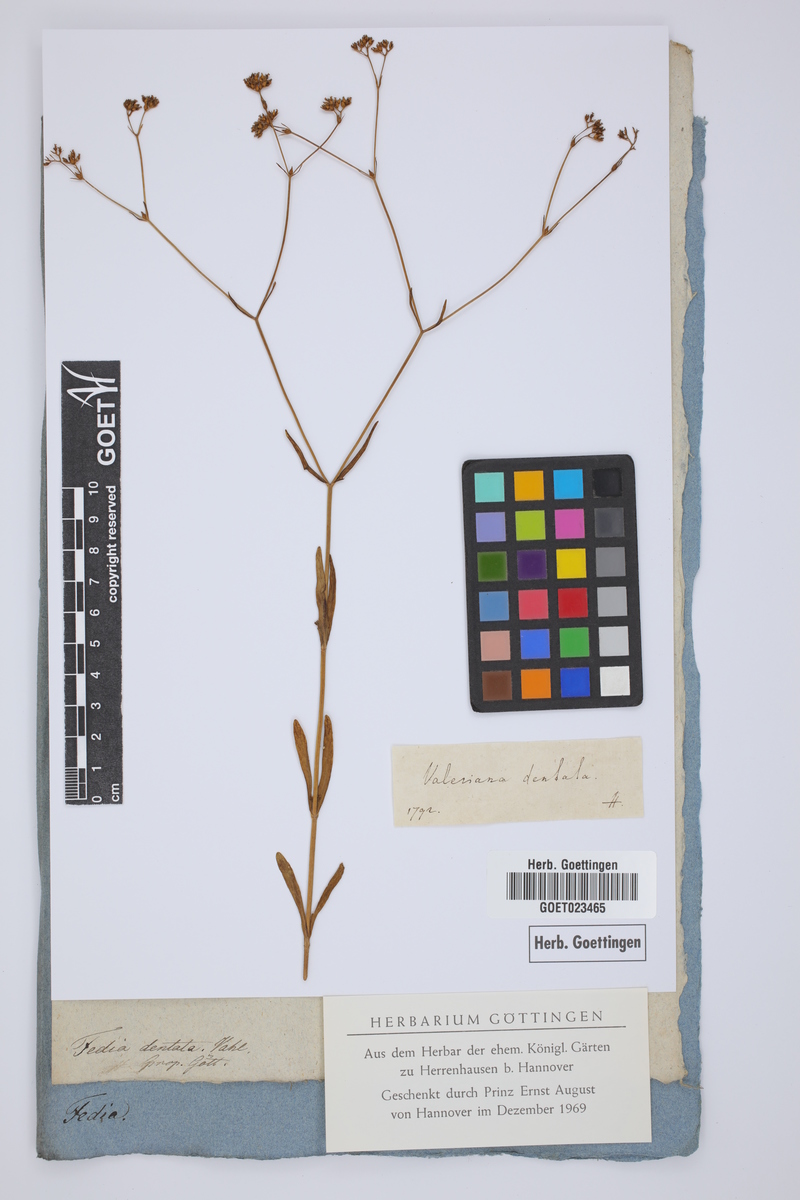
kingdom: Plantae
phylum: Tracheophyta
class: Magnoliopsida
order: Dipsacales
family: Caprifoliaceae
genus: Valerianella
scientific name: Valerianella dentata
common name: Narrow-fruited cornsalad
